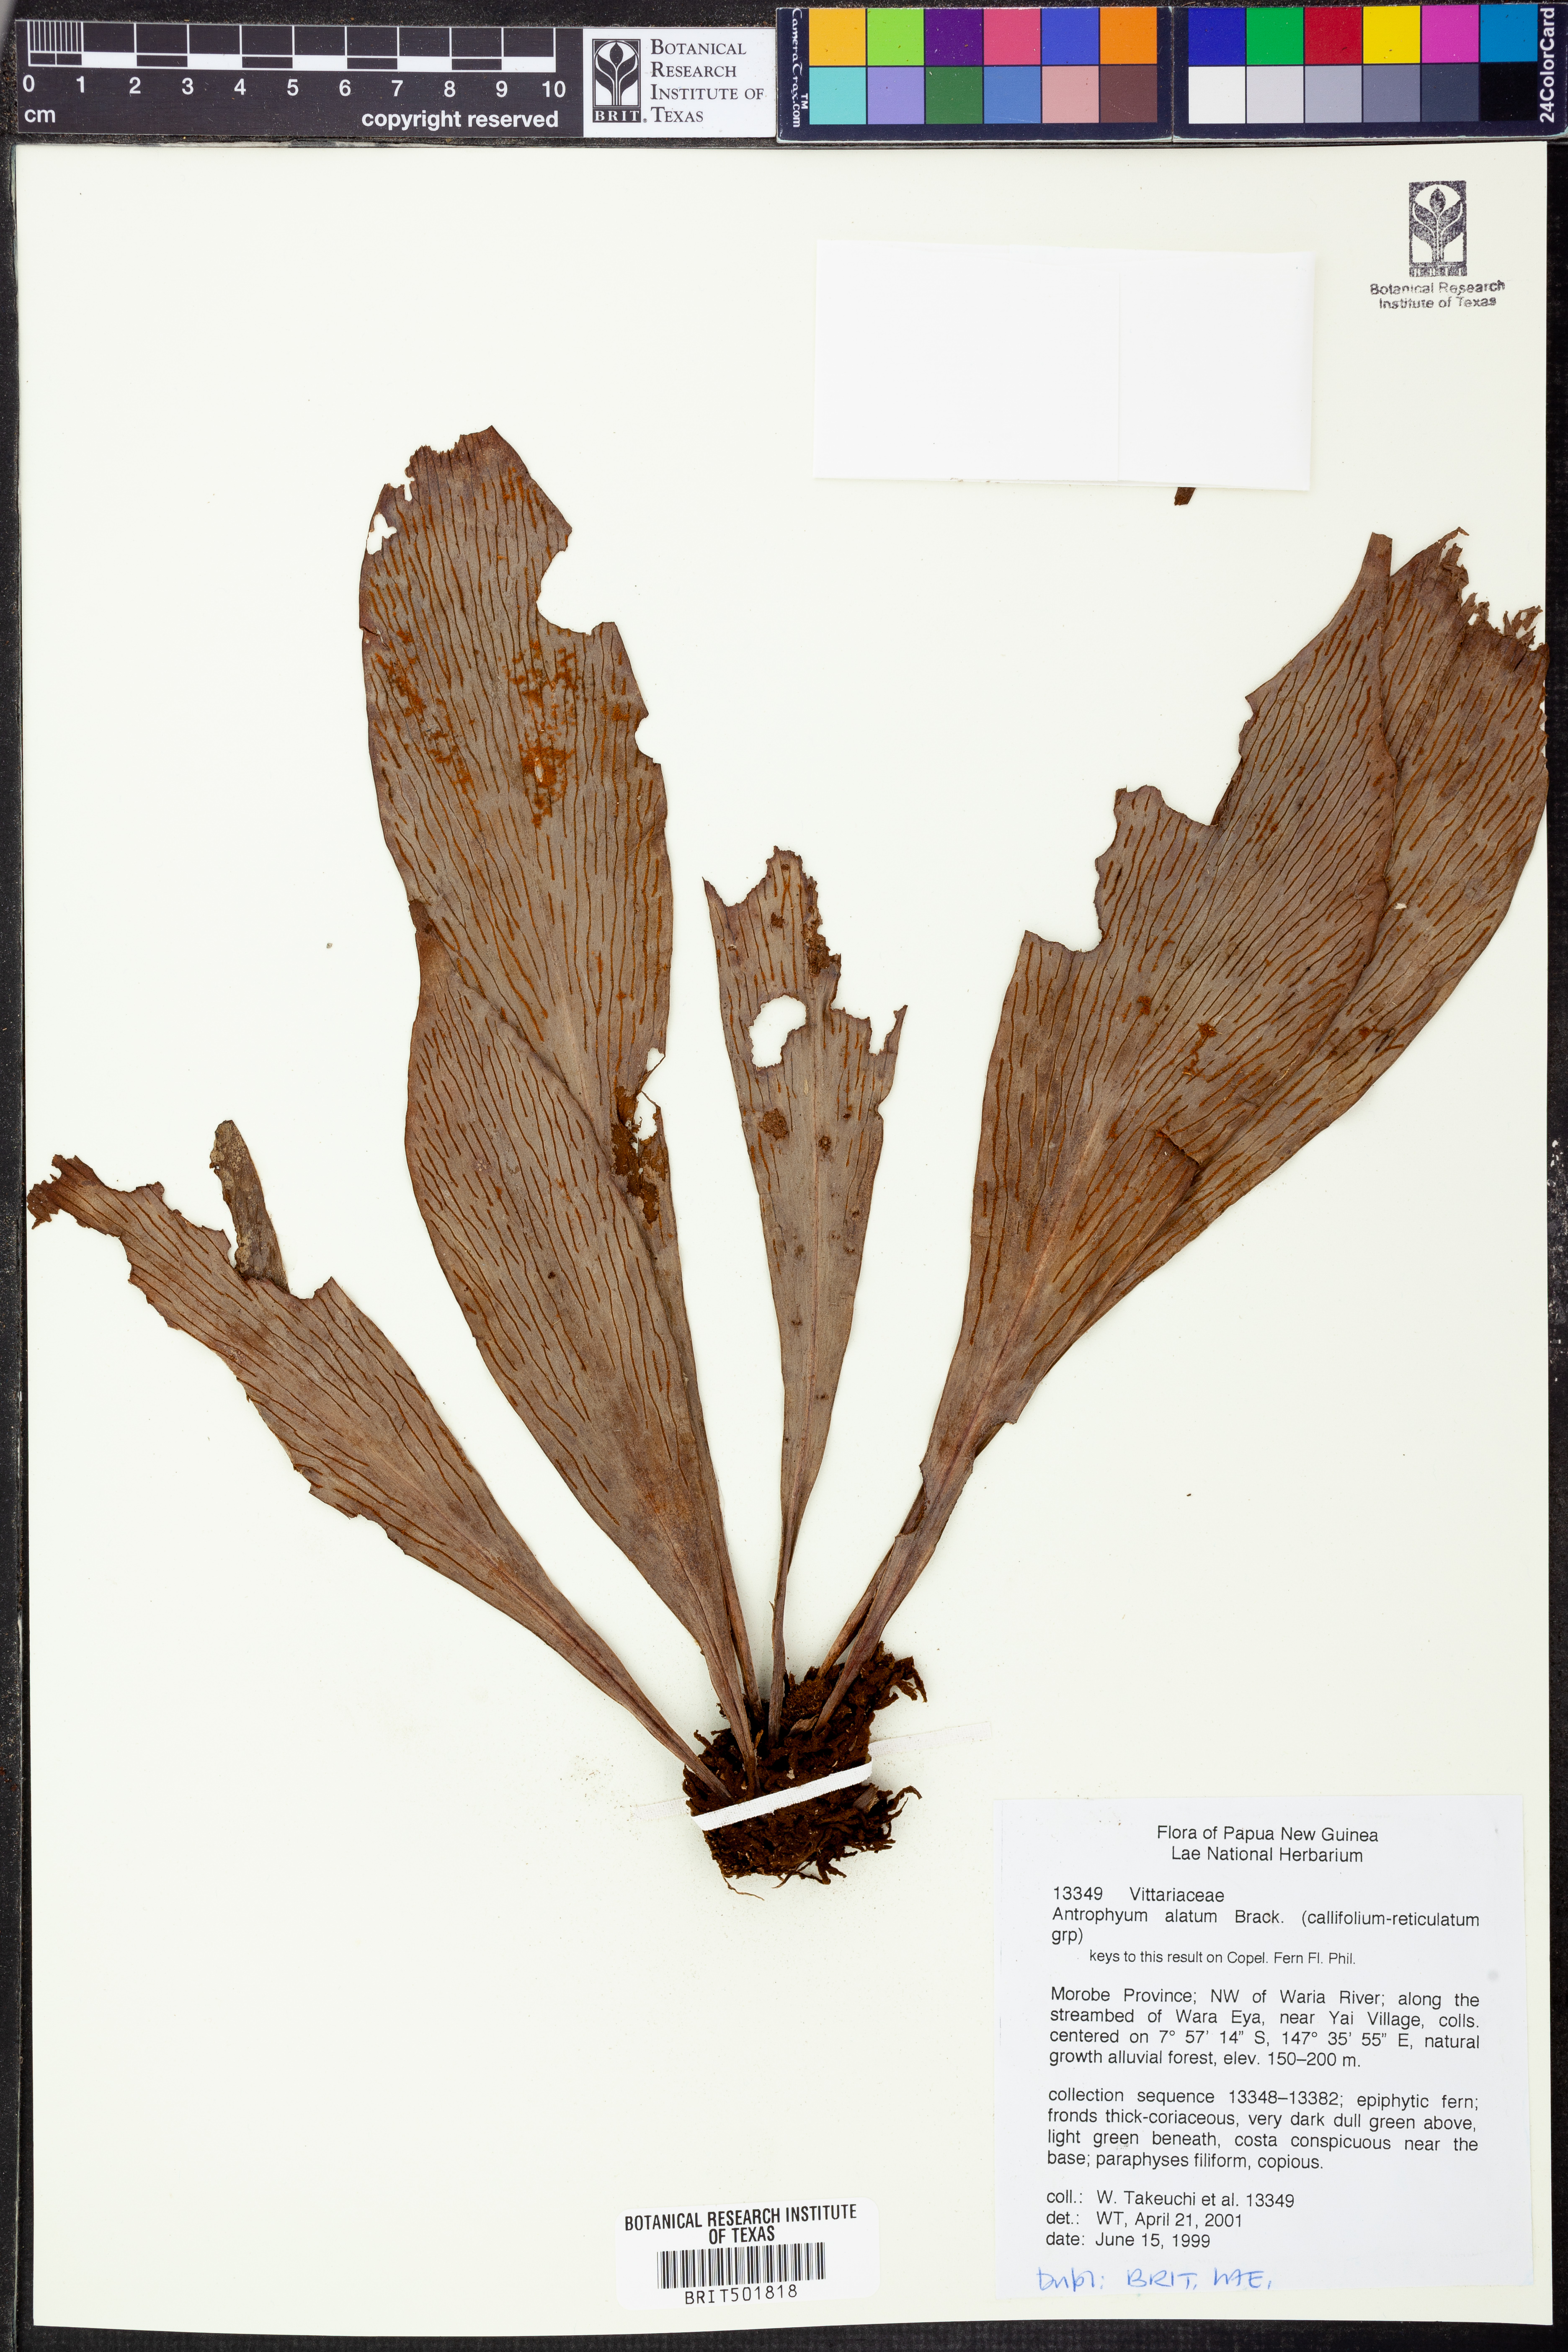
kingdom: Plantae
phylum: Tracheophyta
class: Polypodiopsida
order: Polypodiales
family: Pteridaceae
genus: Antrophyum
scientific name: Antrophyum callifolium
